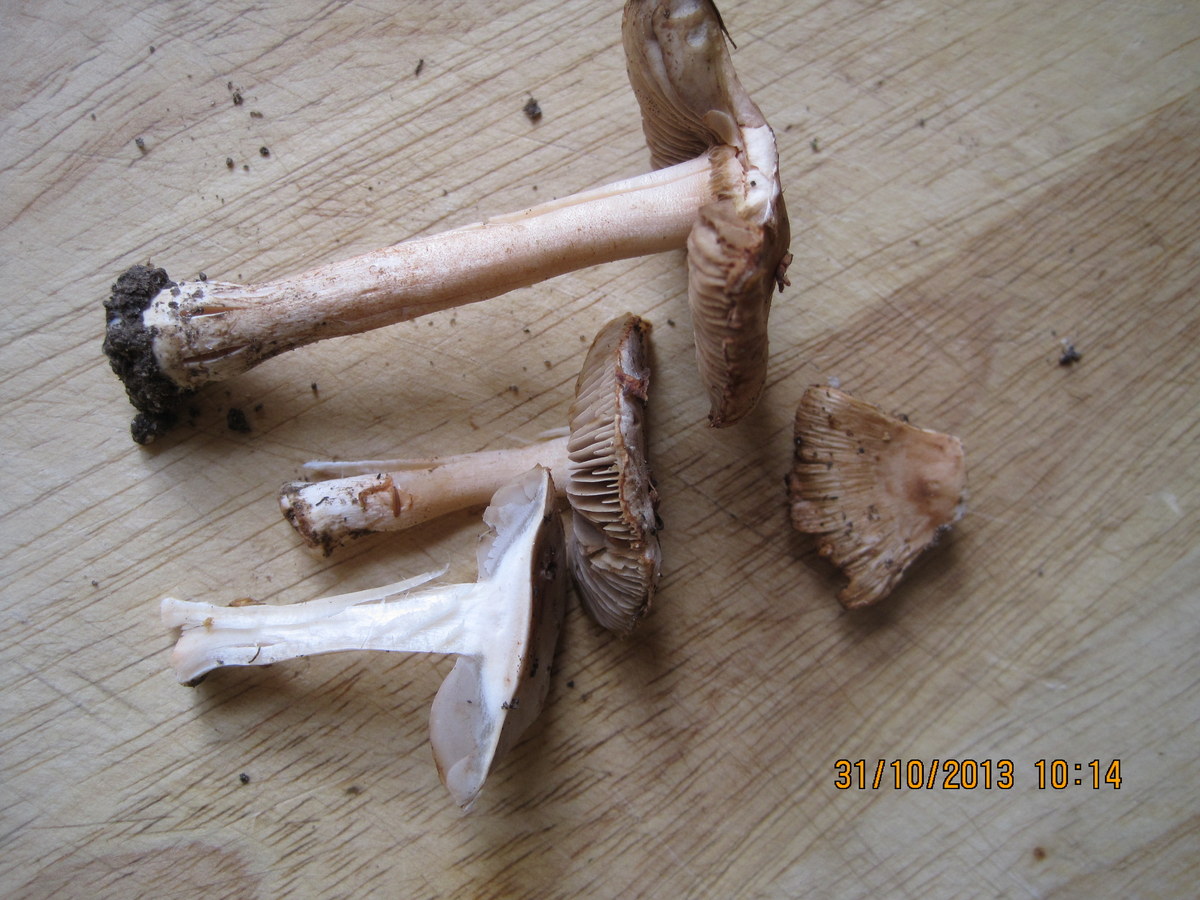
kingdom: Fungi
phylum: Basidiomycota
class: Agaricomycetes
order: Agaricales
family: Inocybaceae
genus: Inocybe
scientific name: Inocybe
